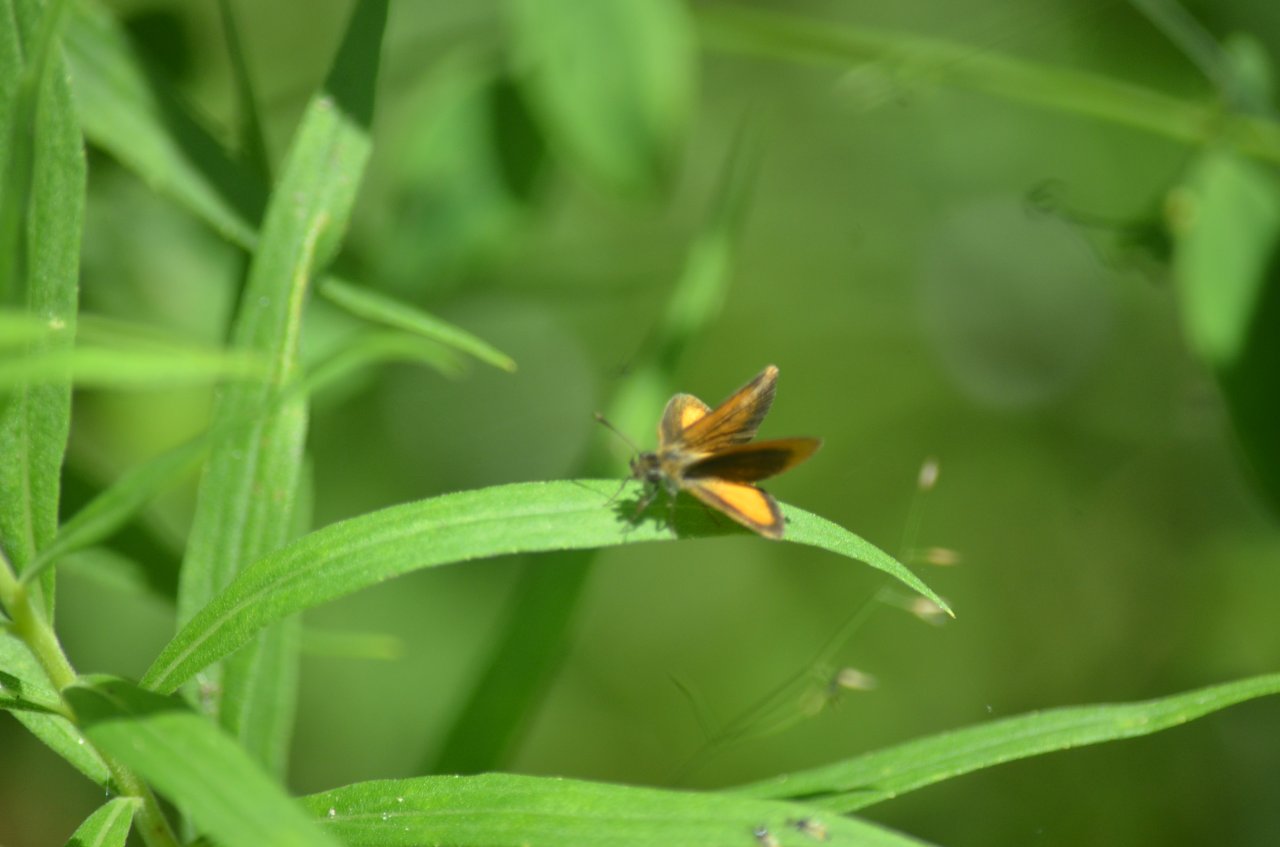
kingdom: Animalia
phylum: Arthropoda
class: Insecta
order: Lepidoptera
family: Hesperiidae
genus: Ancyloxypha
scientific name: Ancyloxypha numitor
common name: Least Skipper
